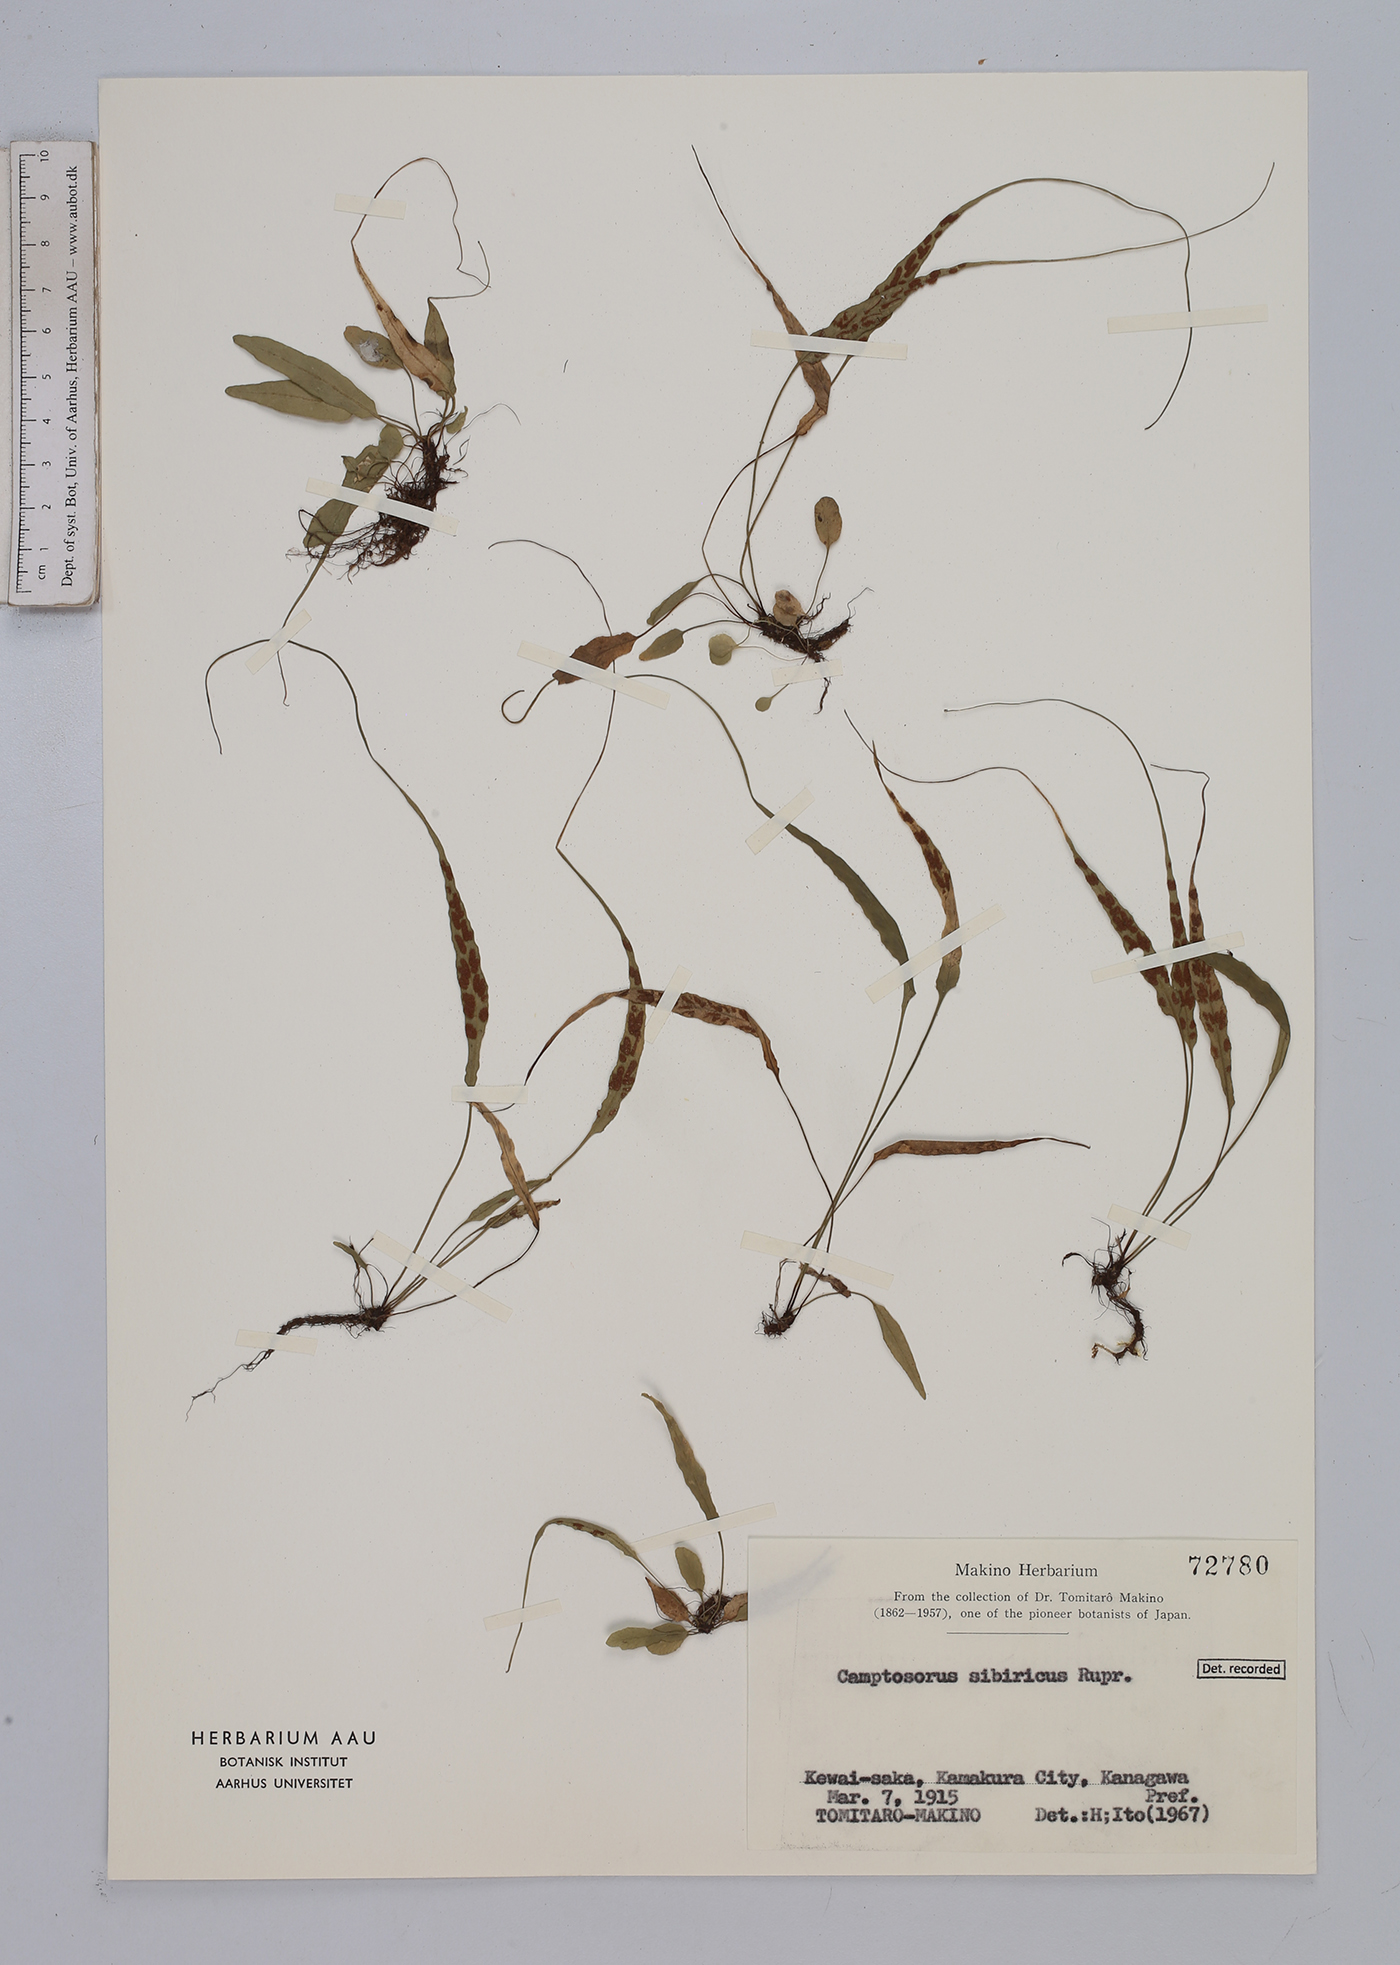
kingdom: Plantae
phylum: Tracheophyta
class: Polypodiopsida
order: Polypodiales
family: Aspleniaceae
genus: Asplenium
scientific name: Asplenium ruprechtii
